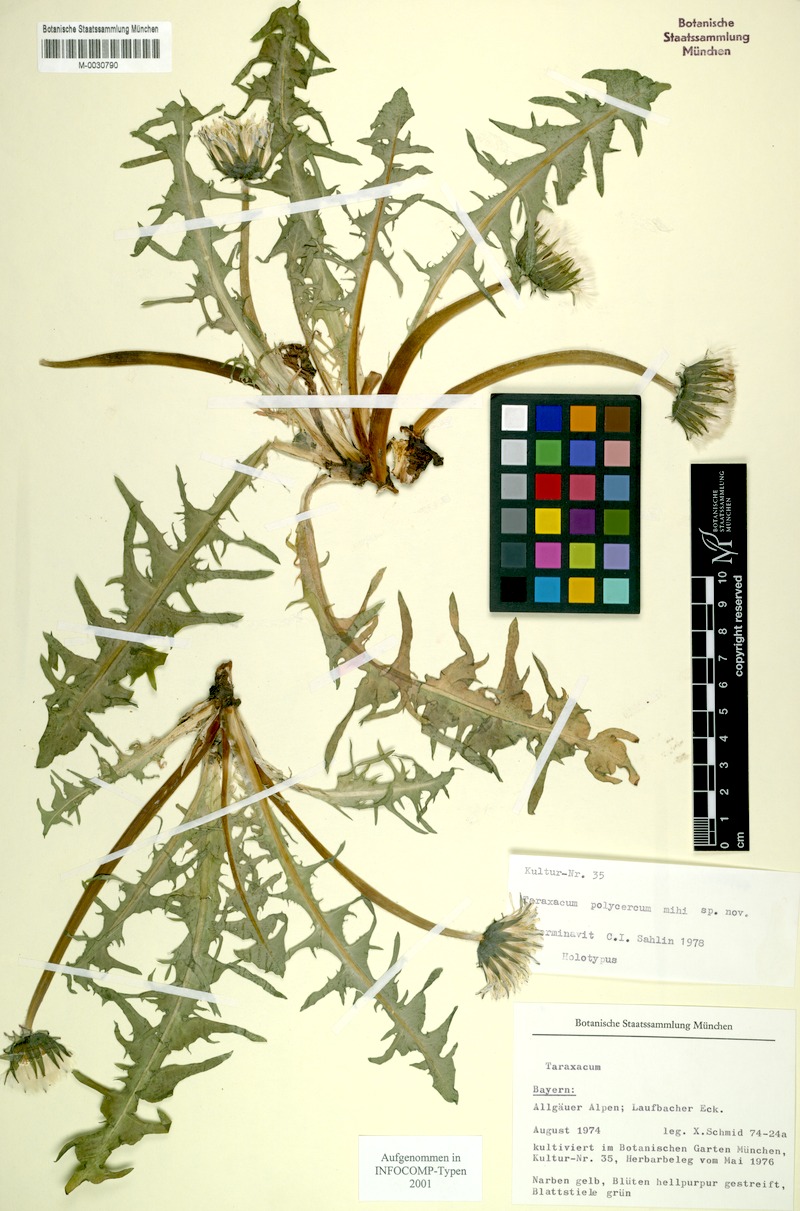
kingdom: Plantae
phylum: Tracheophyta
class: Magnoliopsida
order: Asterales
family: Asteraceae
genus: Taraxacum
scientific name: Taraxacum polycercum
